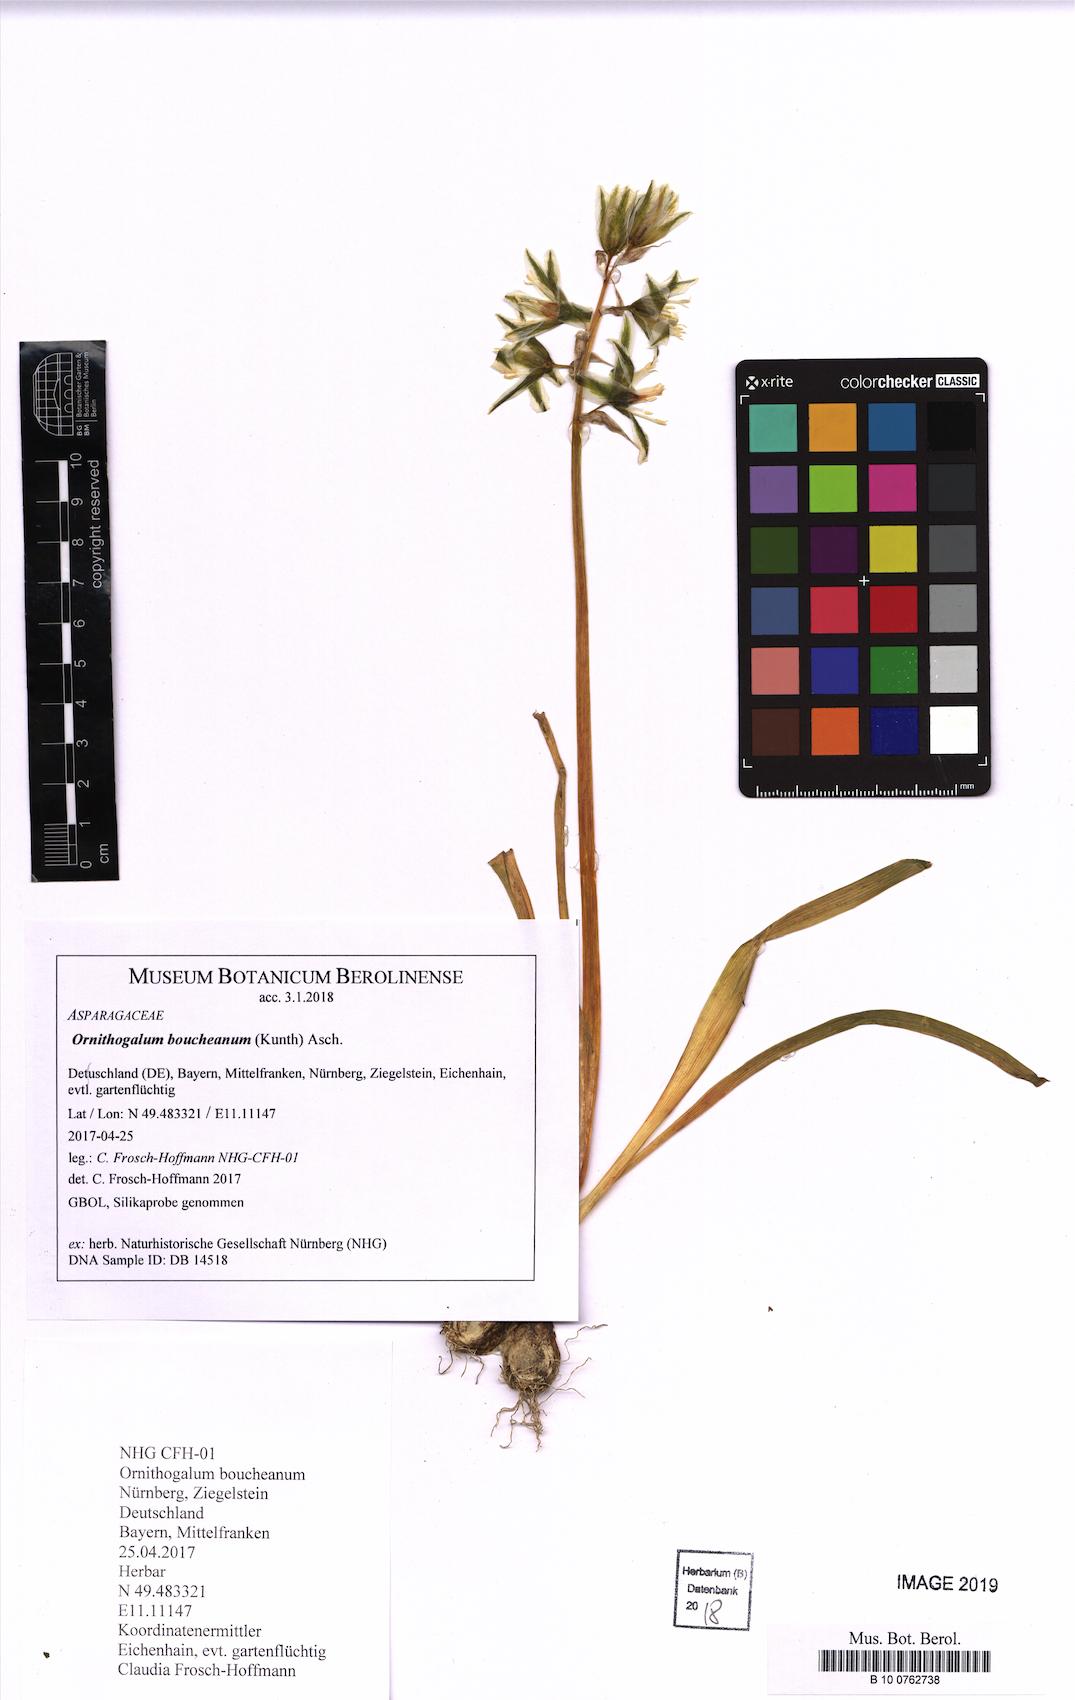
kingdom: Plantae
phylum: Tracheophyta
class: Liliopsida
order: Asparagales
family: Asparagaceae
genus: Ornithogalum
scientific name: Ornithogalum boucheanum
